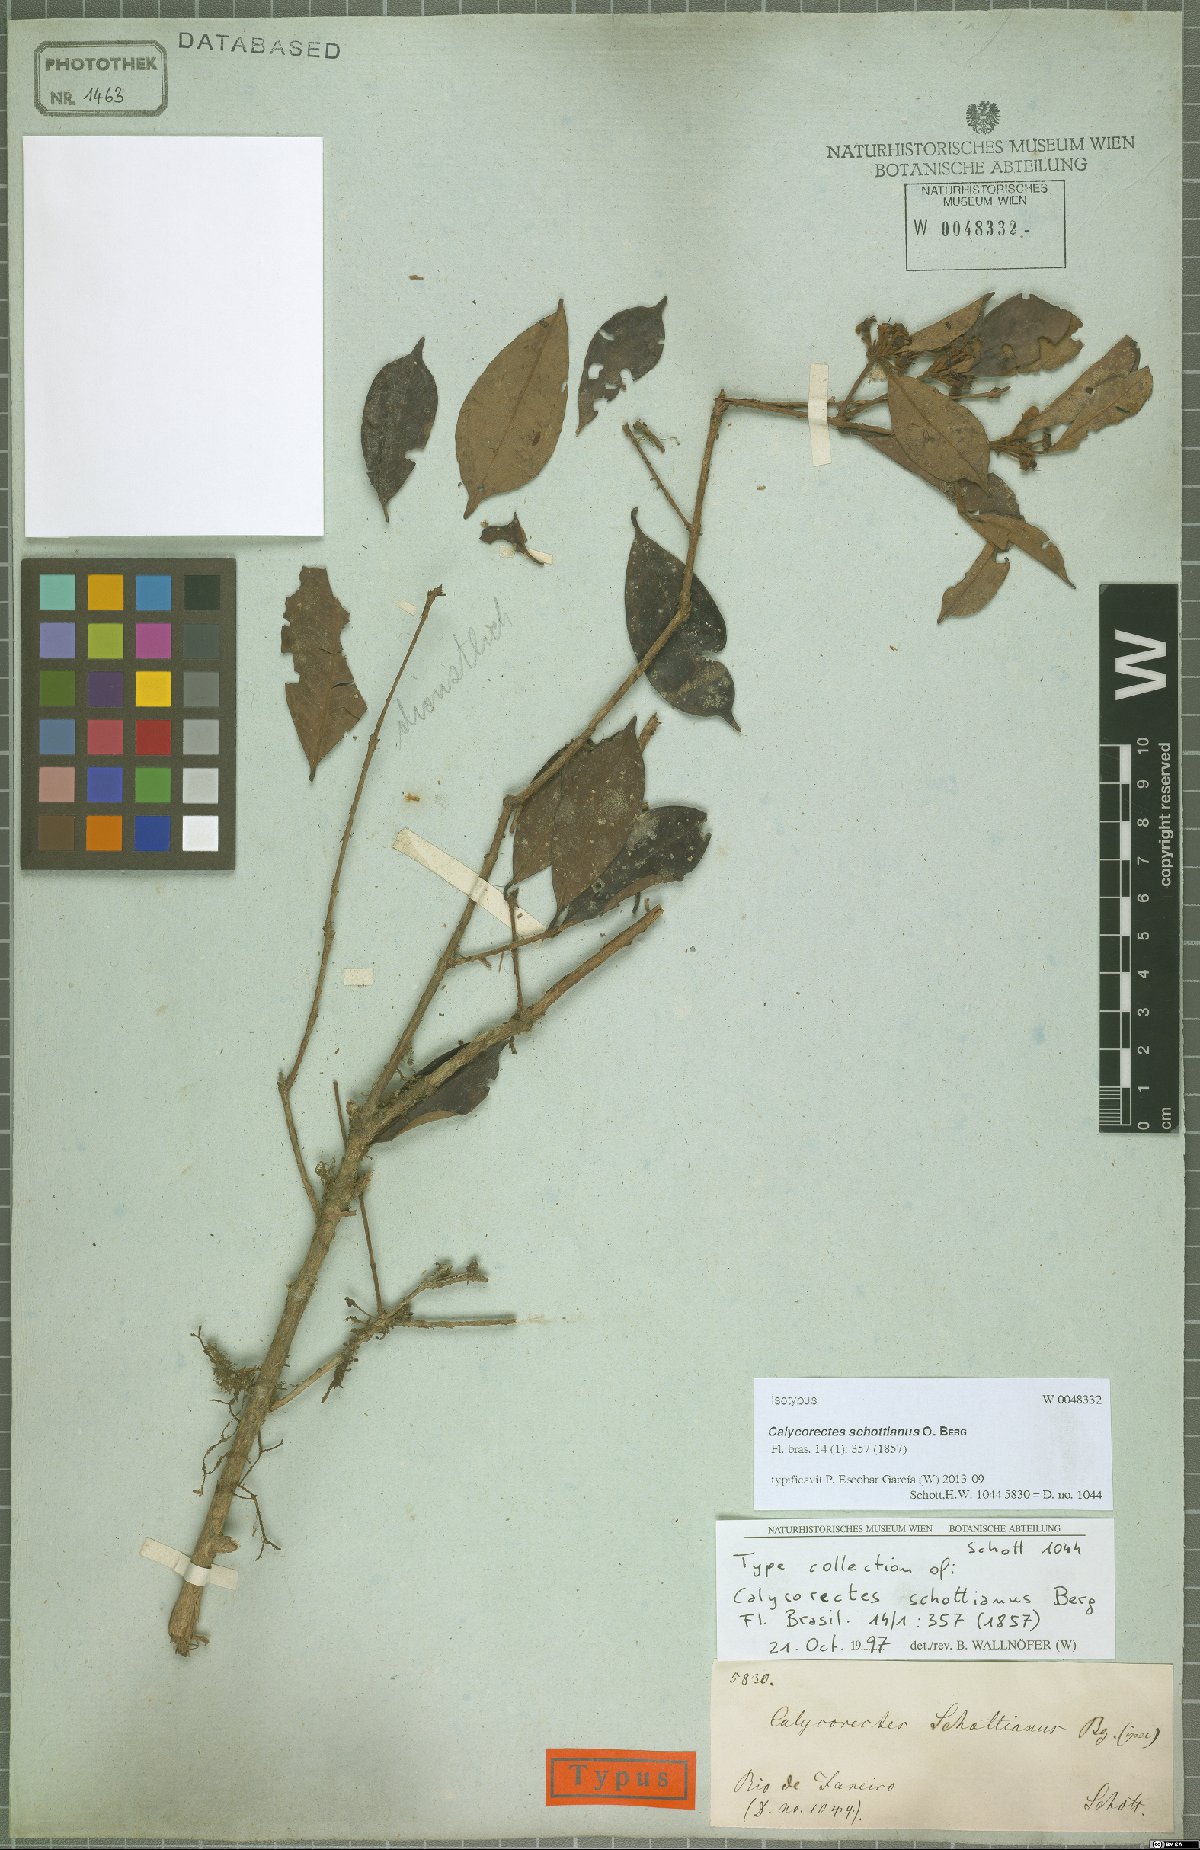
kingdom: Plantae
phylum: Tracheophyta
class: Magnoliopsida
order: Myrtales
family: Myrtaceae
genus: Calycorectes
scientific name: Calycorectes schottianus
